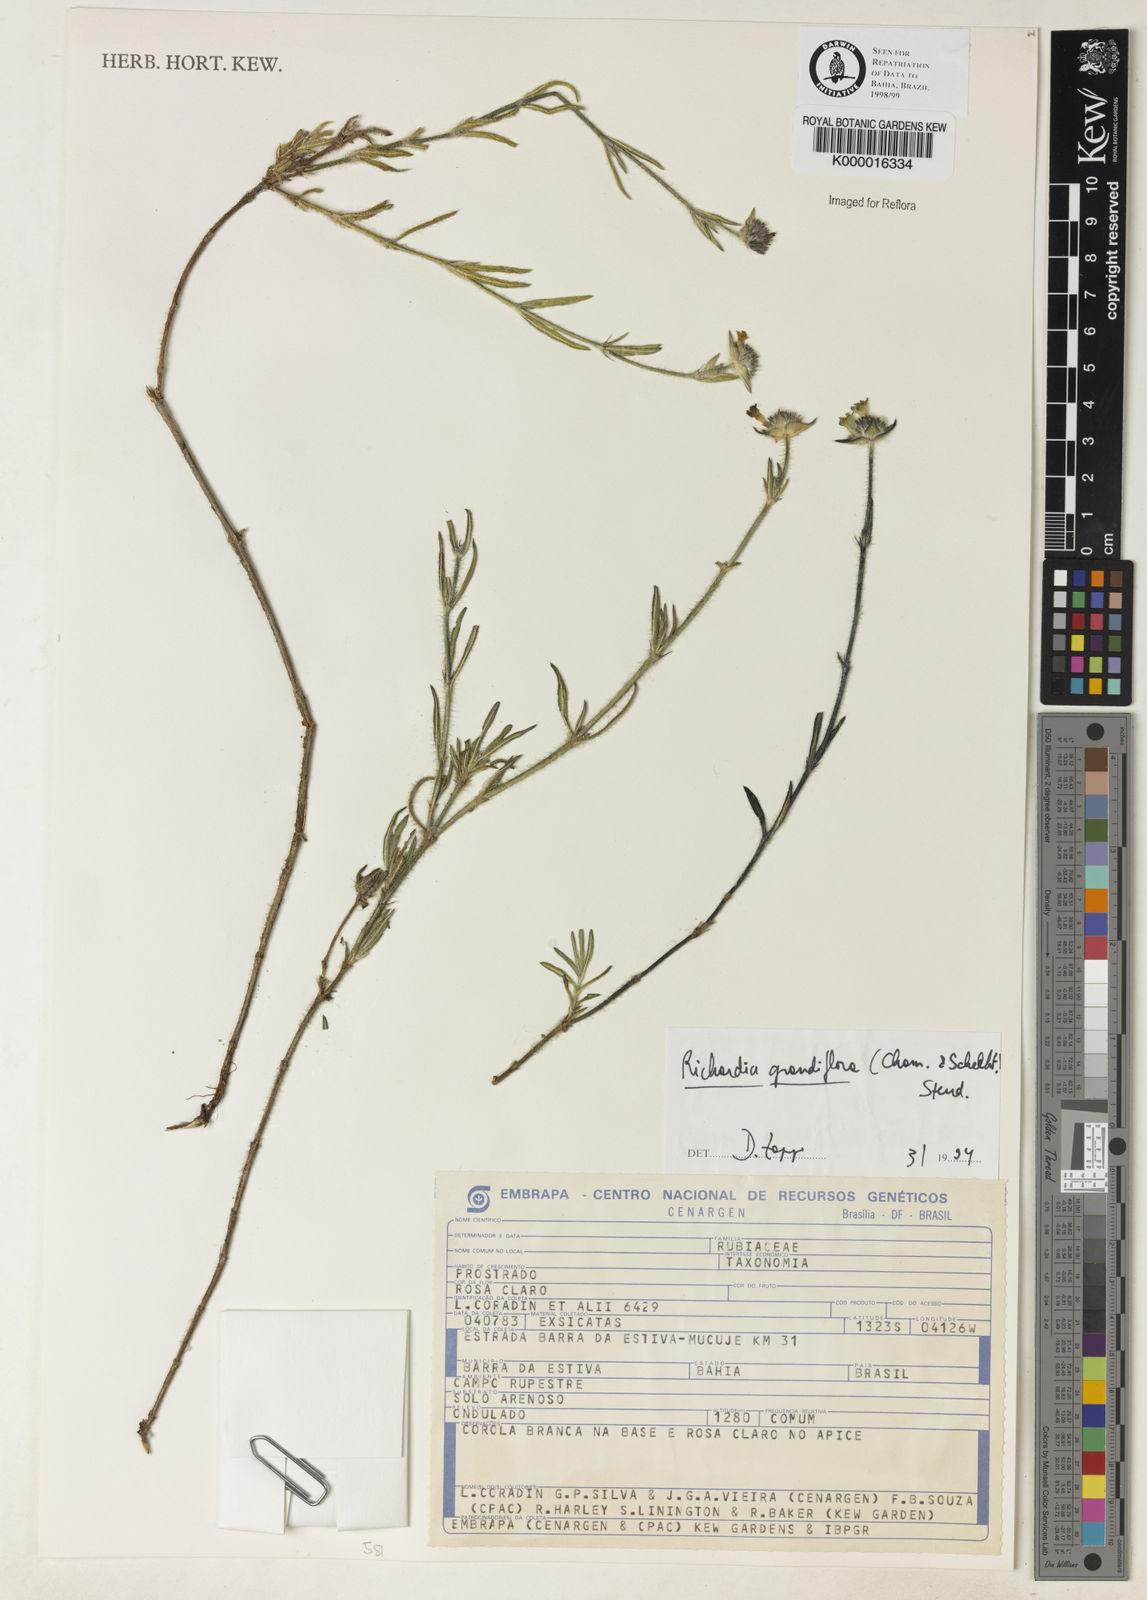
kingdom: Plantae
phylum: Tracheophyta
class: Magnoliopsida
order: Gentianales
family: Rubiaceae
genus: Richardia
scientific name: Richardia grandiflora
